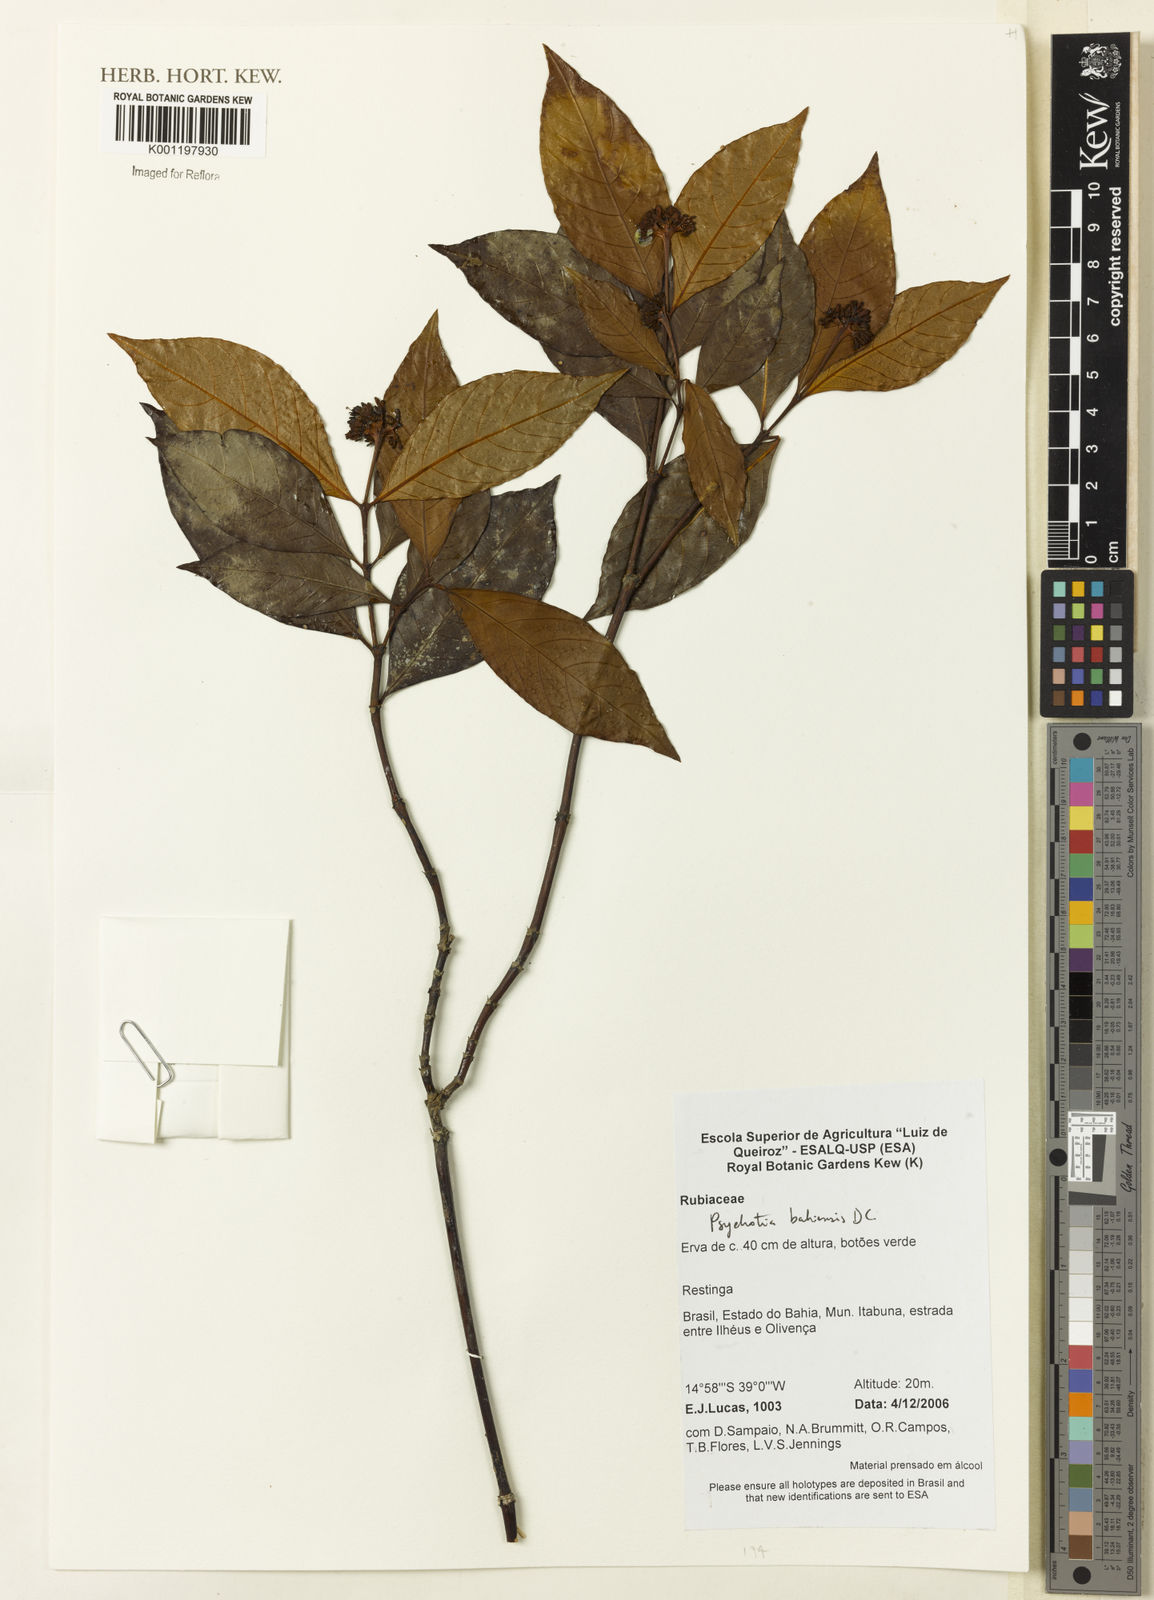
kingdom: Plantae
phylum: Tracheophyta
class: Magnoliopsida
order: Gentianales
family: Rubiaceae
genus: Psychotria
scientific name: Psychotria bahiensis
